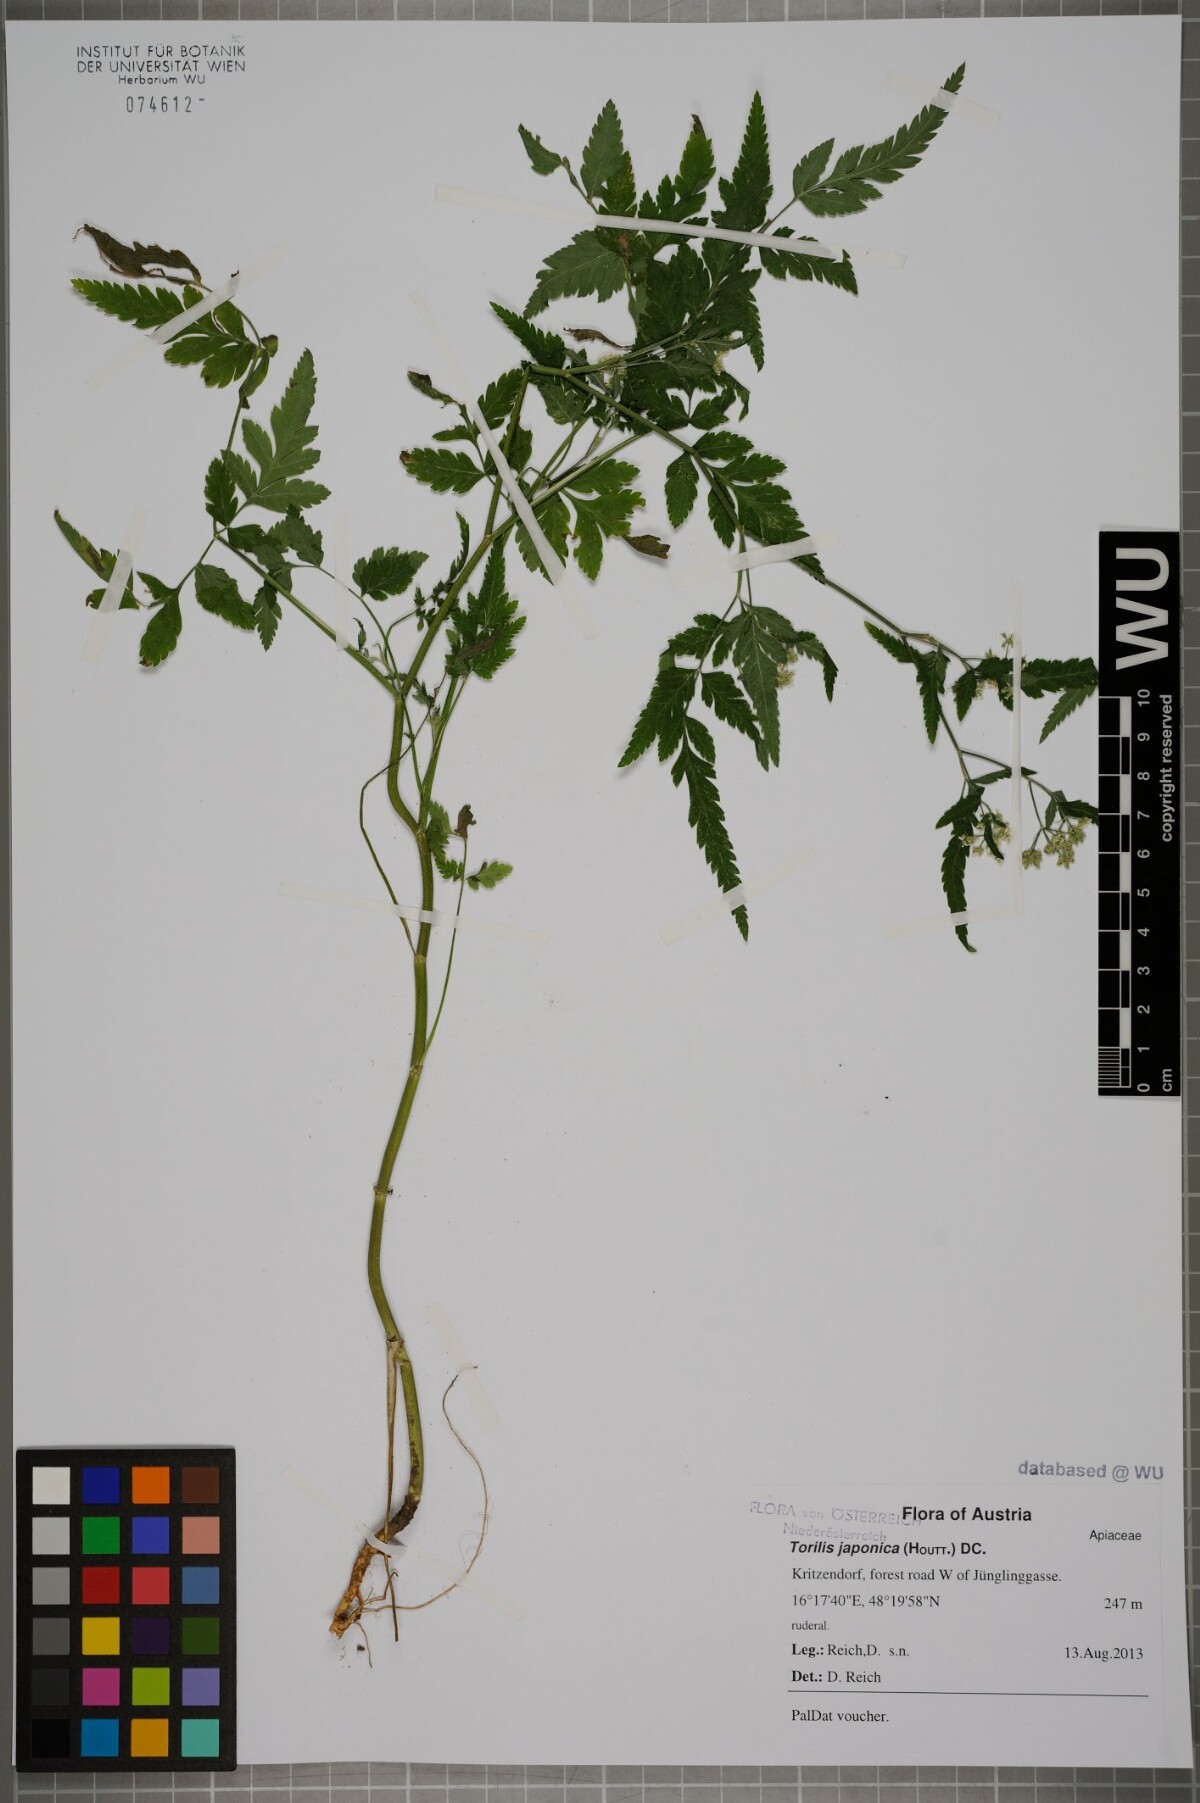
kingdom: Plantae
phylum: Tracheophyta
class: Magnoliopsida
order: Apiales
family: Apiaceae
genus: Torilis
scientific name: Torilis japonica
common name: Upright hedge-parsley
